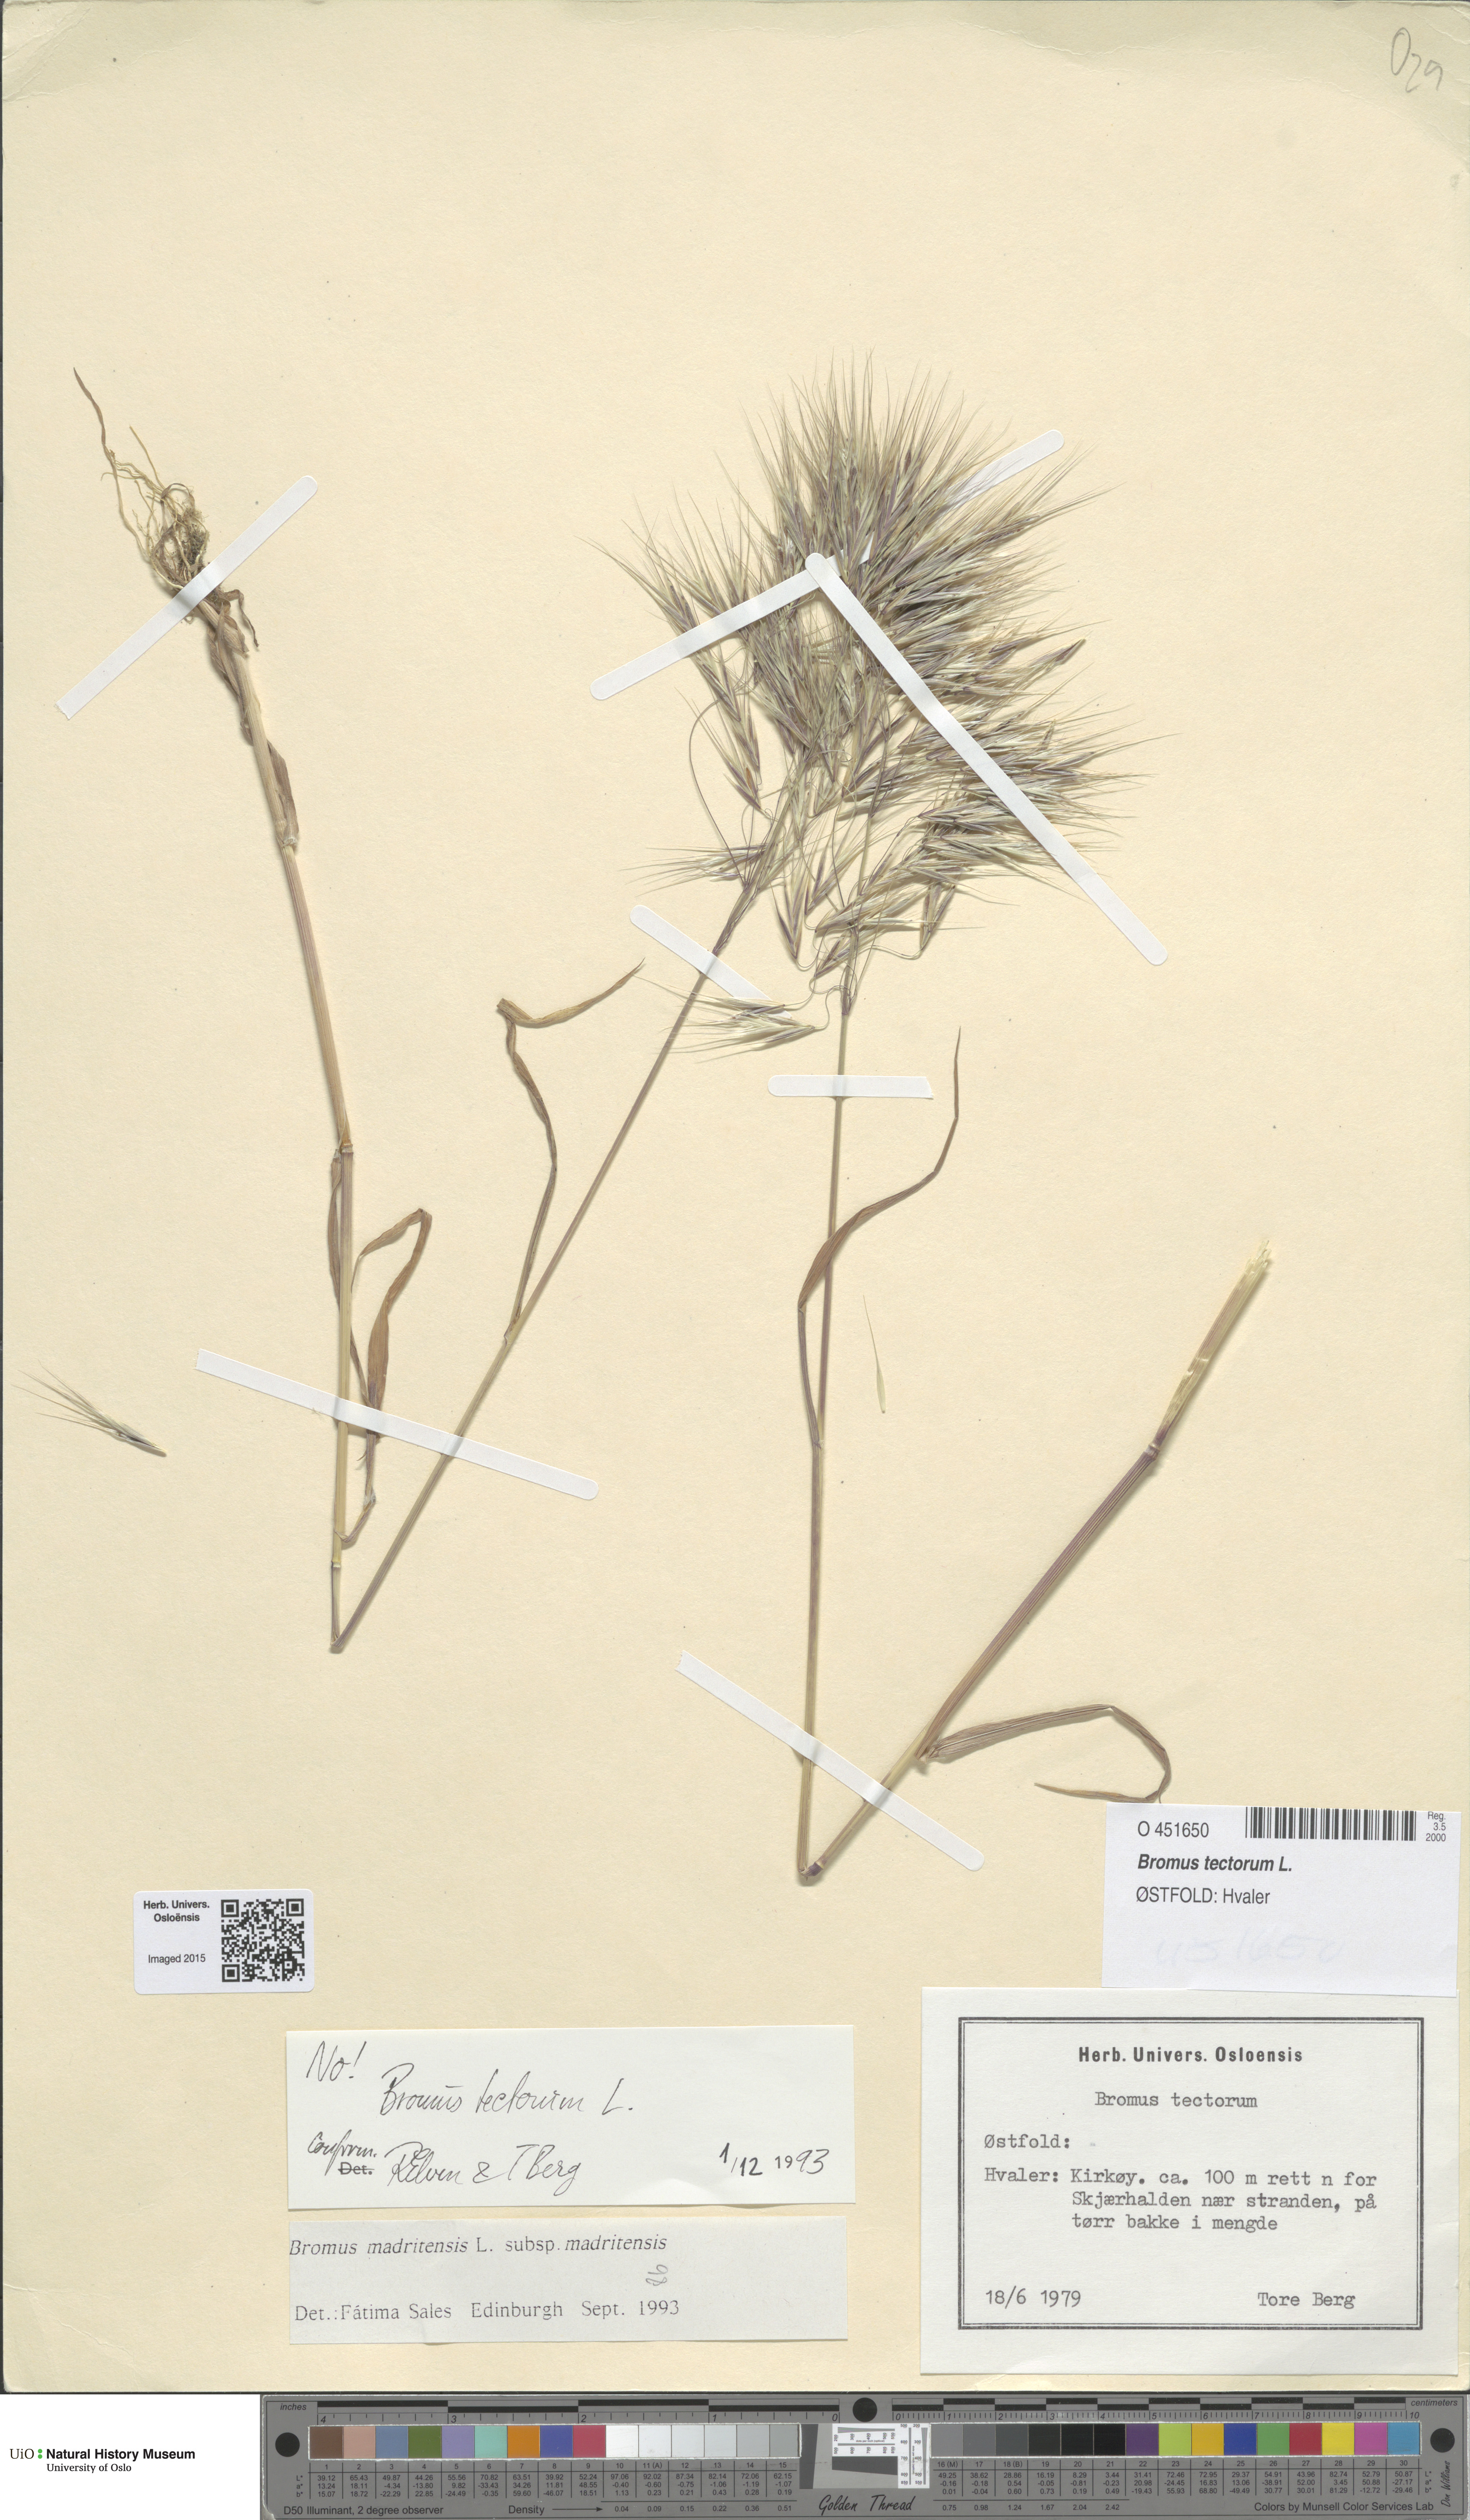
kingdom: Plantae
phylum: Tracheophyta
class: Liliopsida
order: Poales
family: Poaceae
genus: Bromus
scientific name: Bromus tectorum
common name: Cheatgrass
